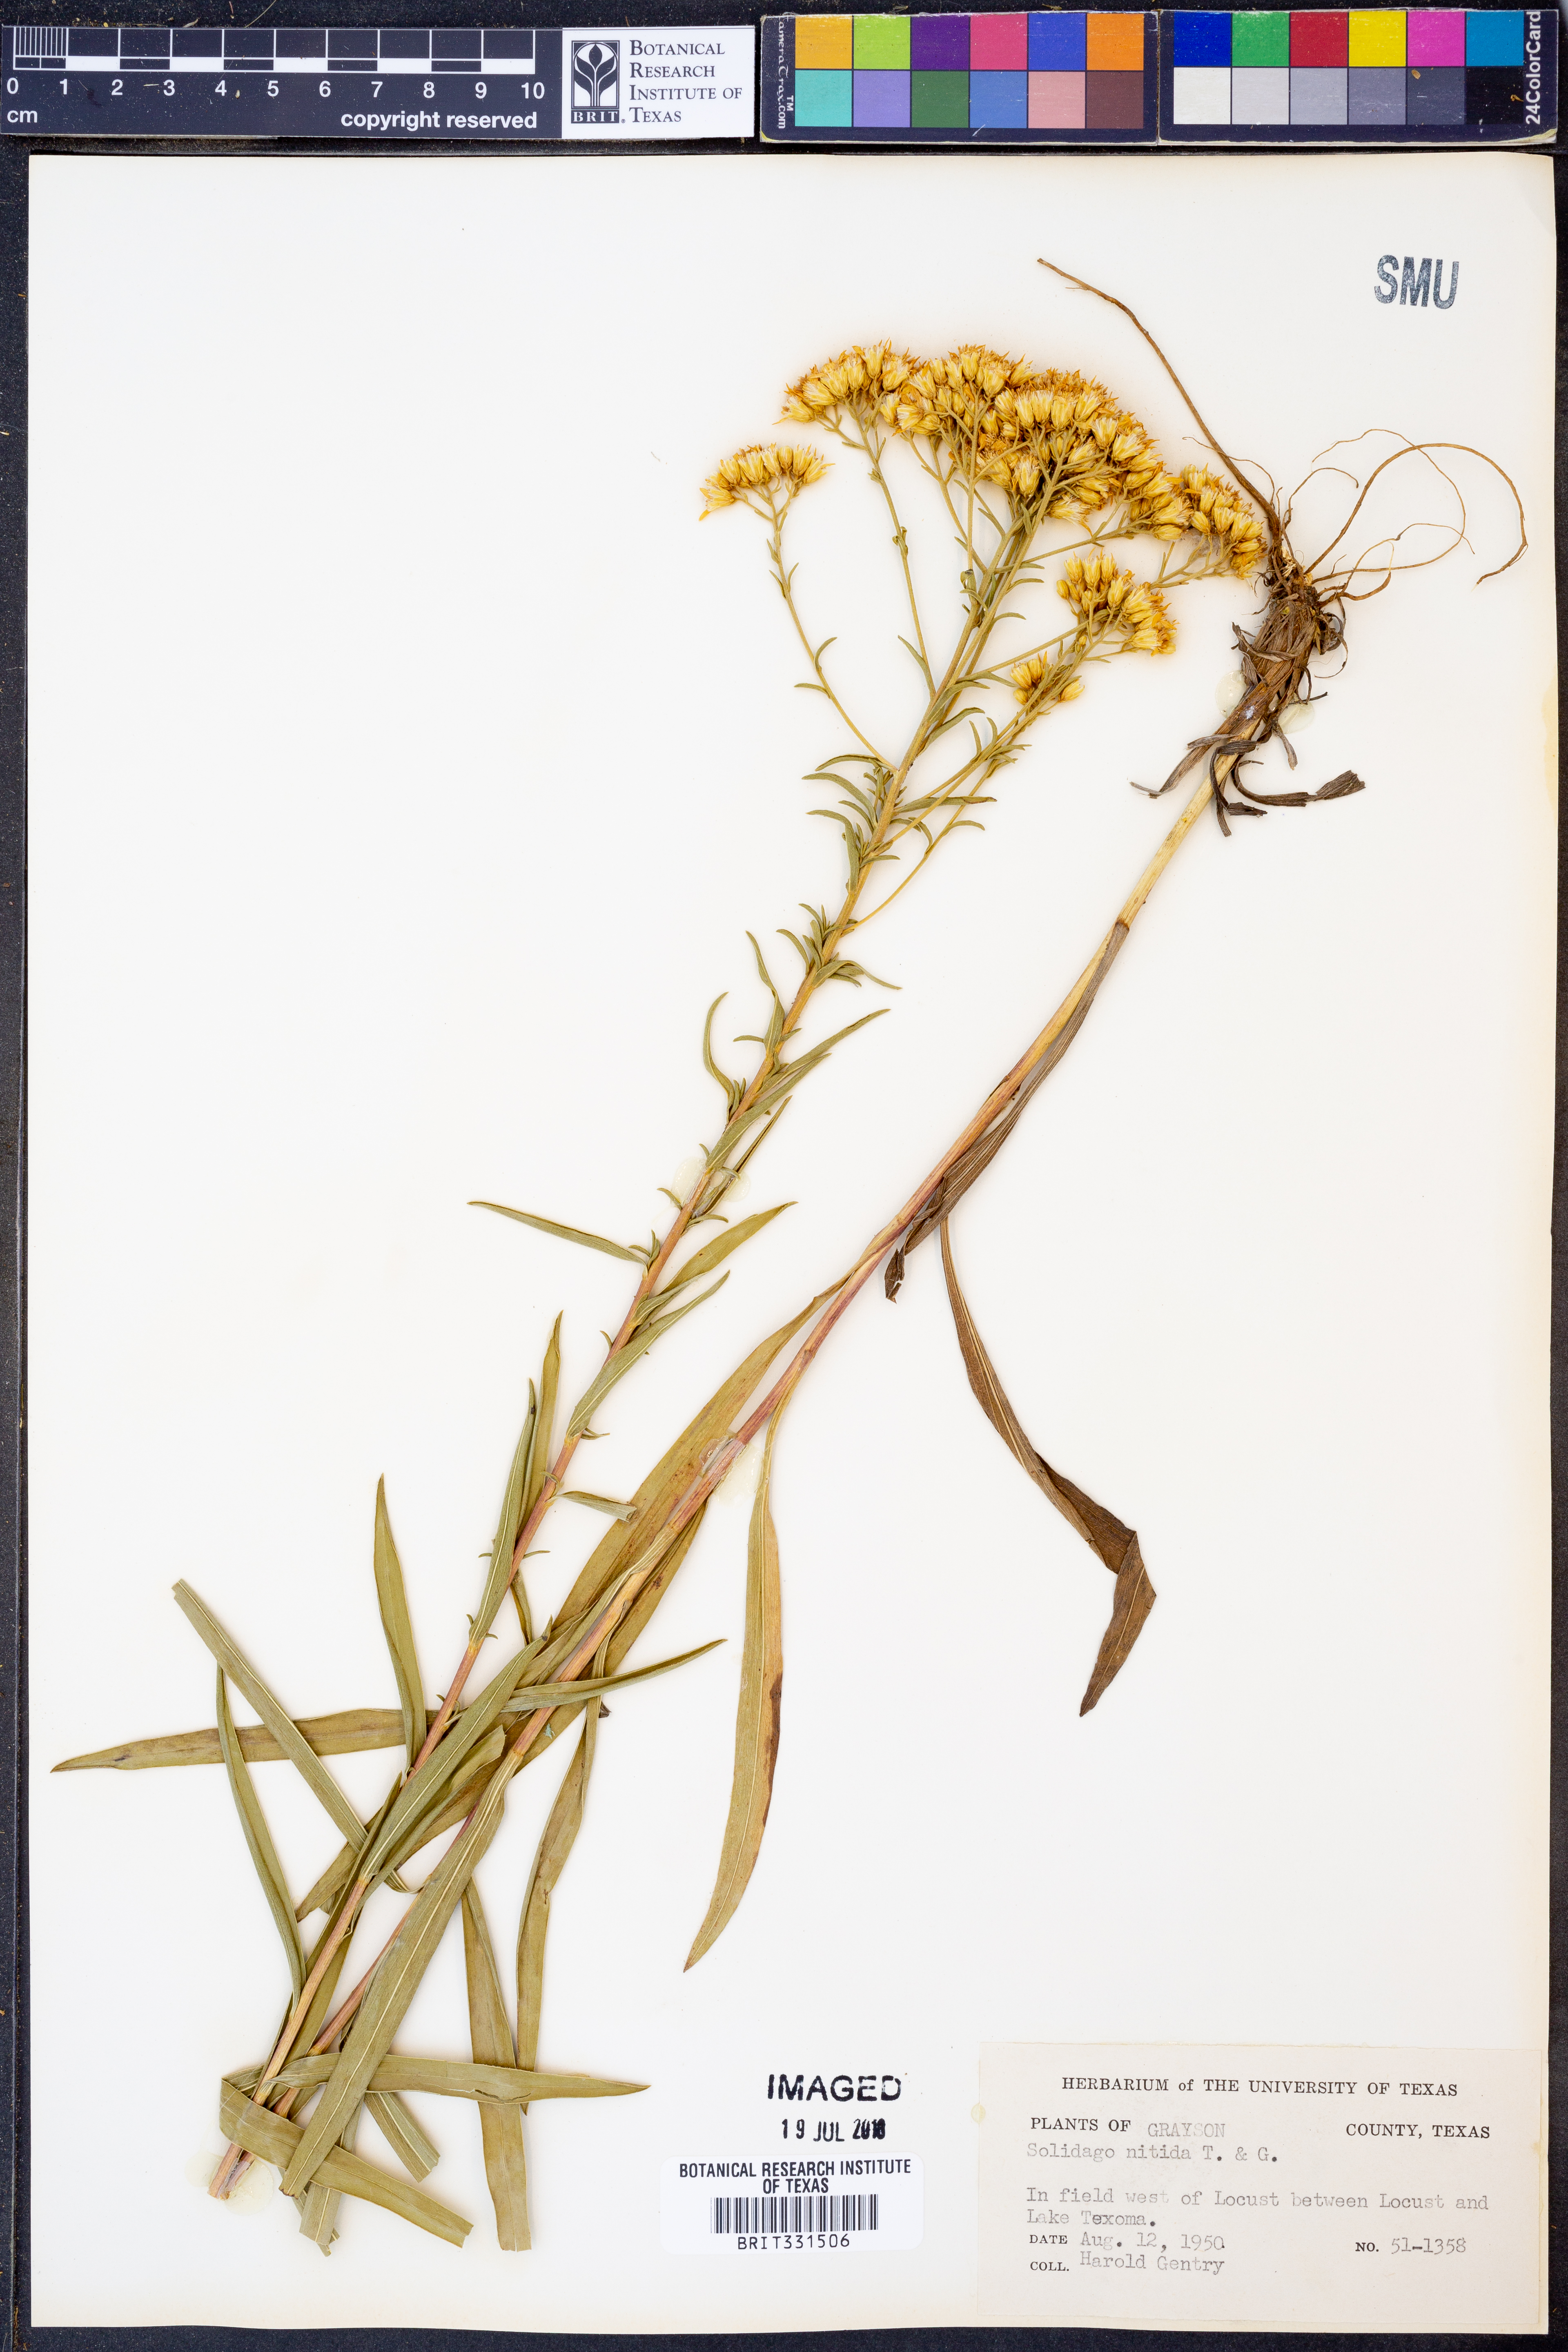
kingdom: Plantae
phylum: Tracheophyta
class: Magnoliopsida
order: Asterales
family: Asteraceae
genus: Solidago
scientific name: Solidago nitida
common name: Shiny goldenrod
